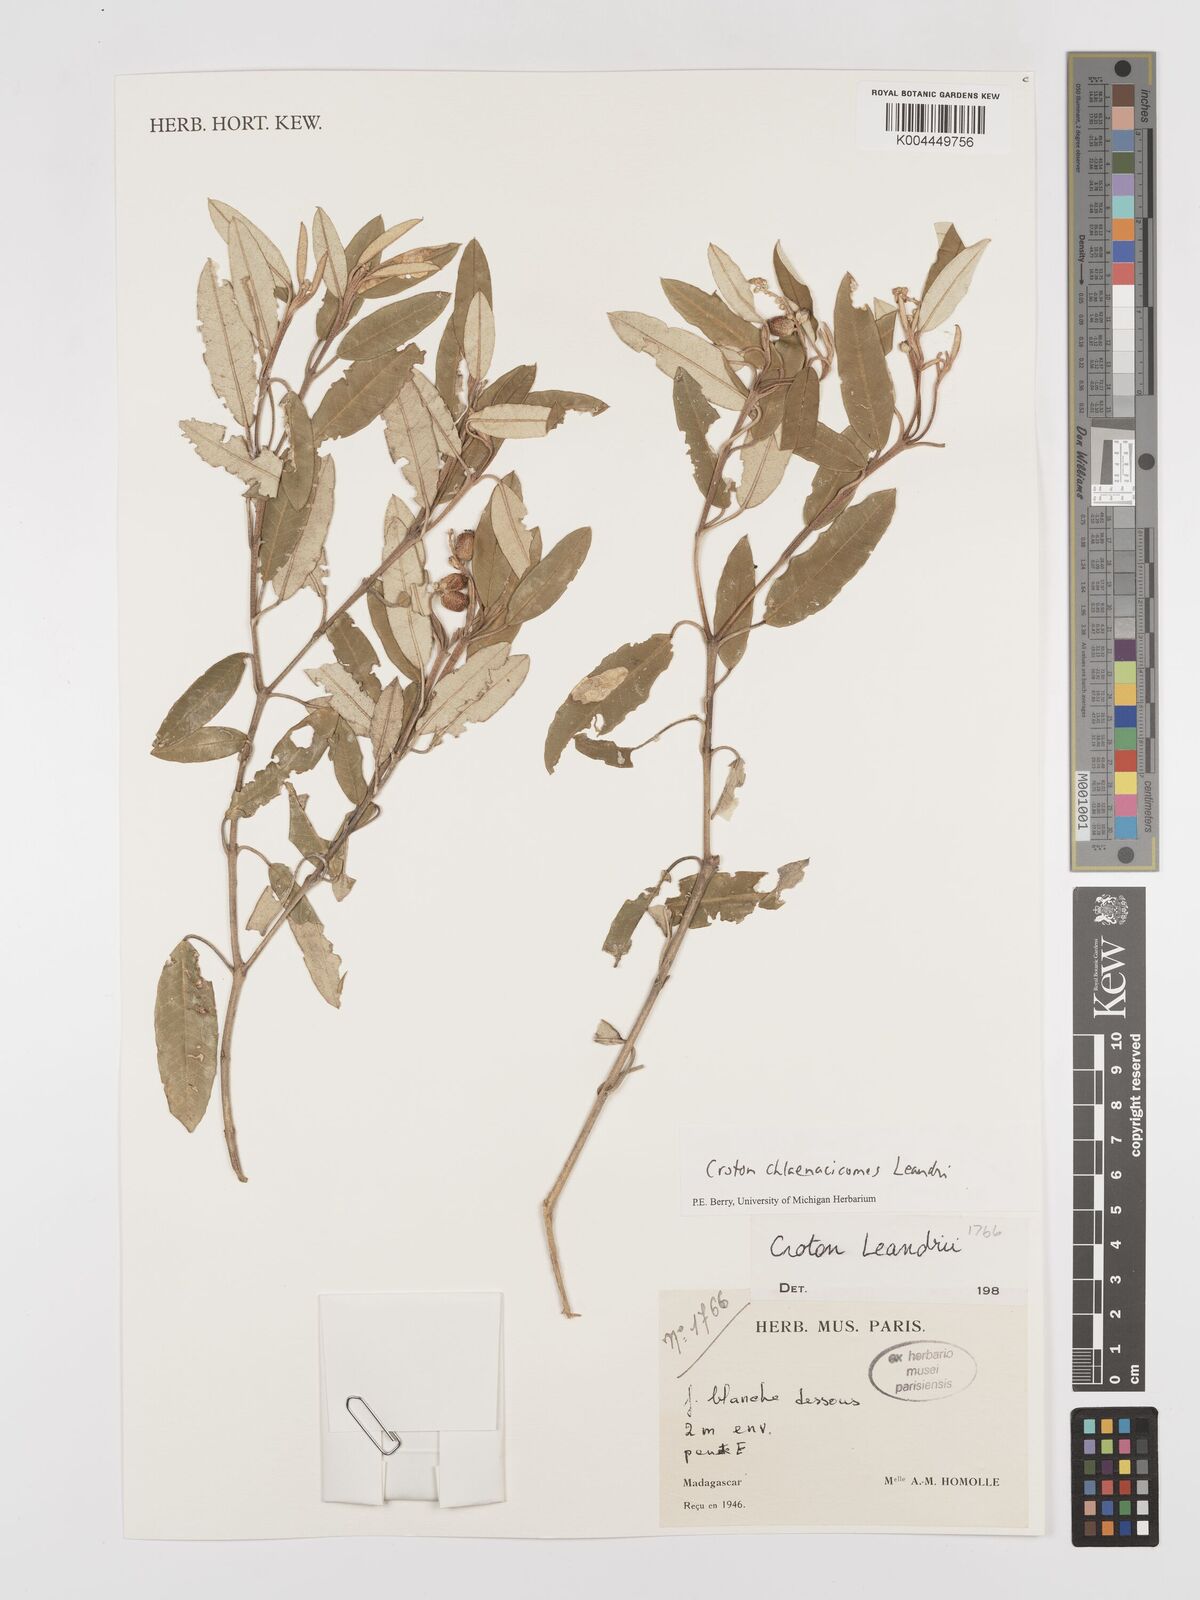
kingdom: Plantae
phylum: Tracheophyta
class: Magnoliopsida
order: Malpighiales
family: Euphorbiaceae
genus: Croton
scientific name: Croton chlaenacicomes
